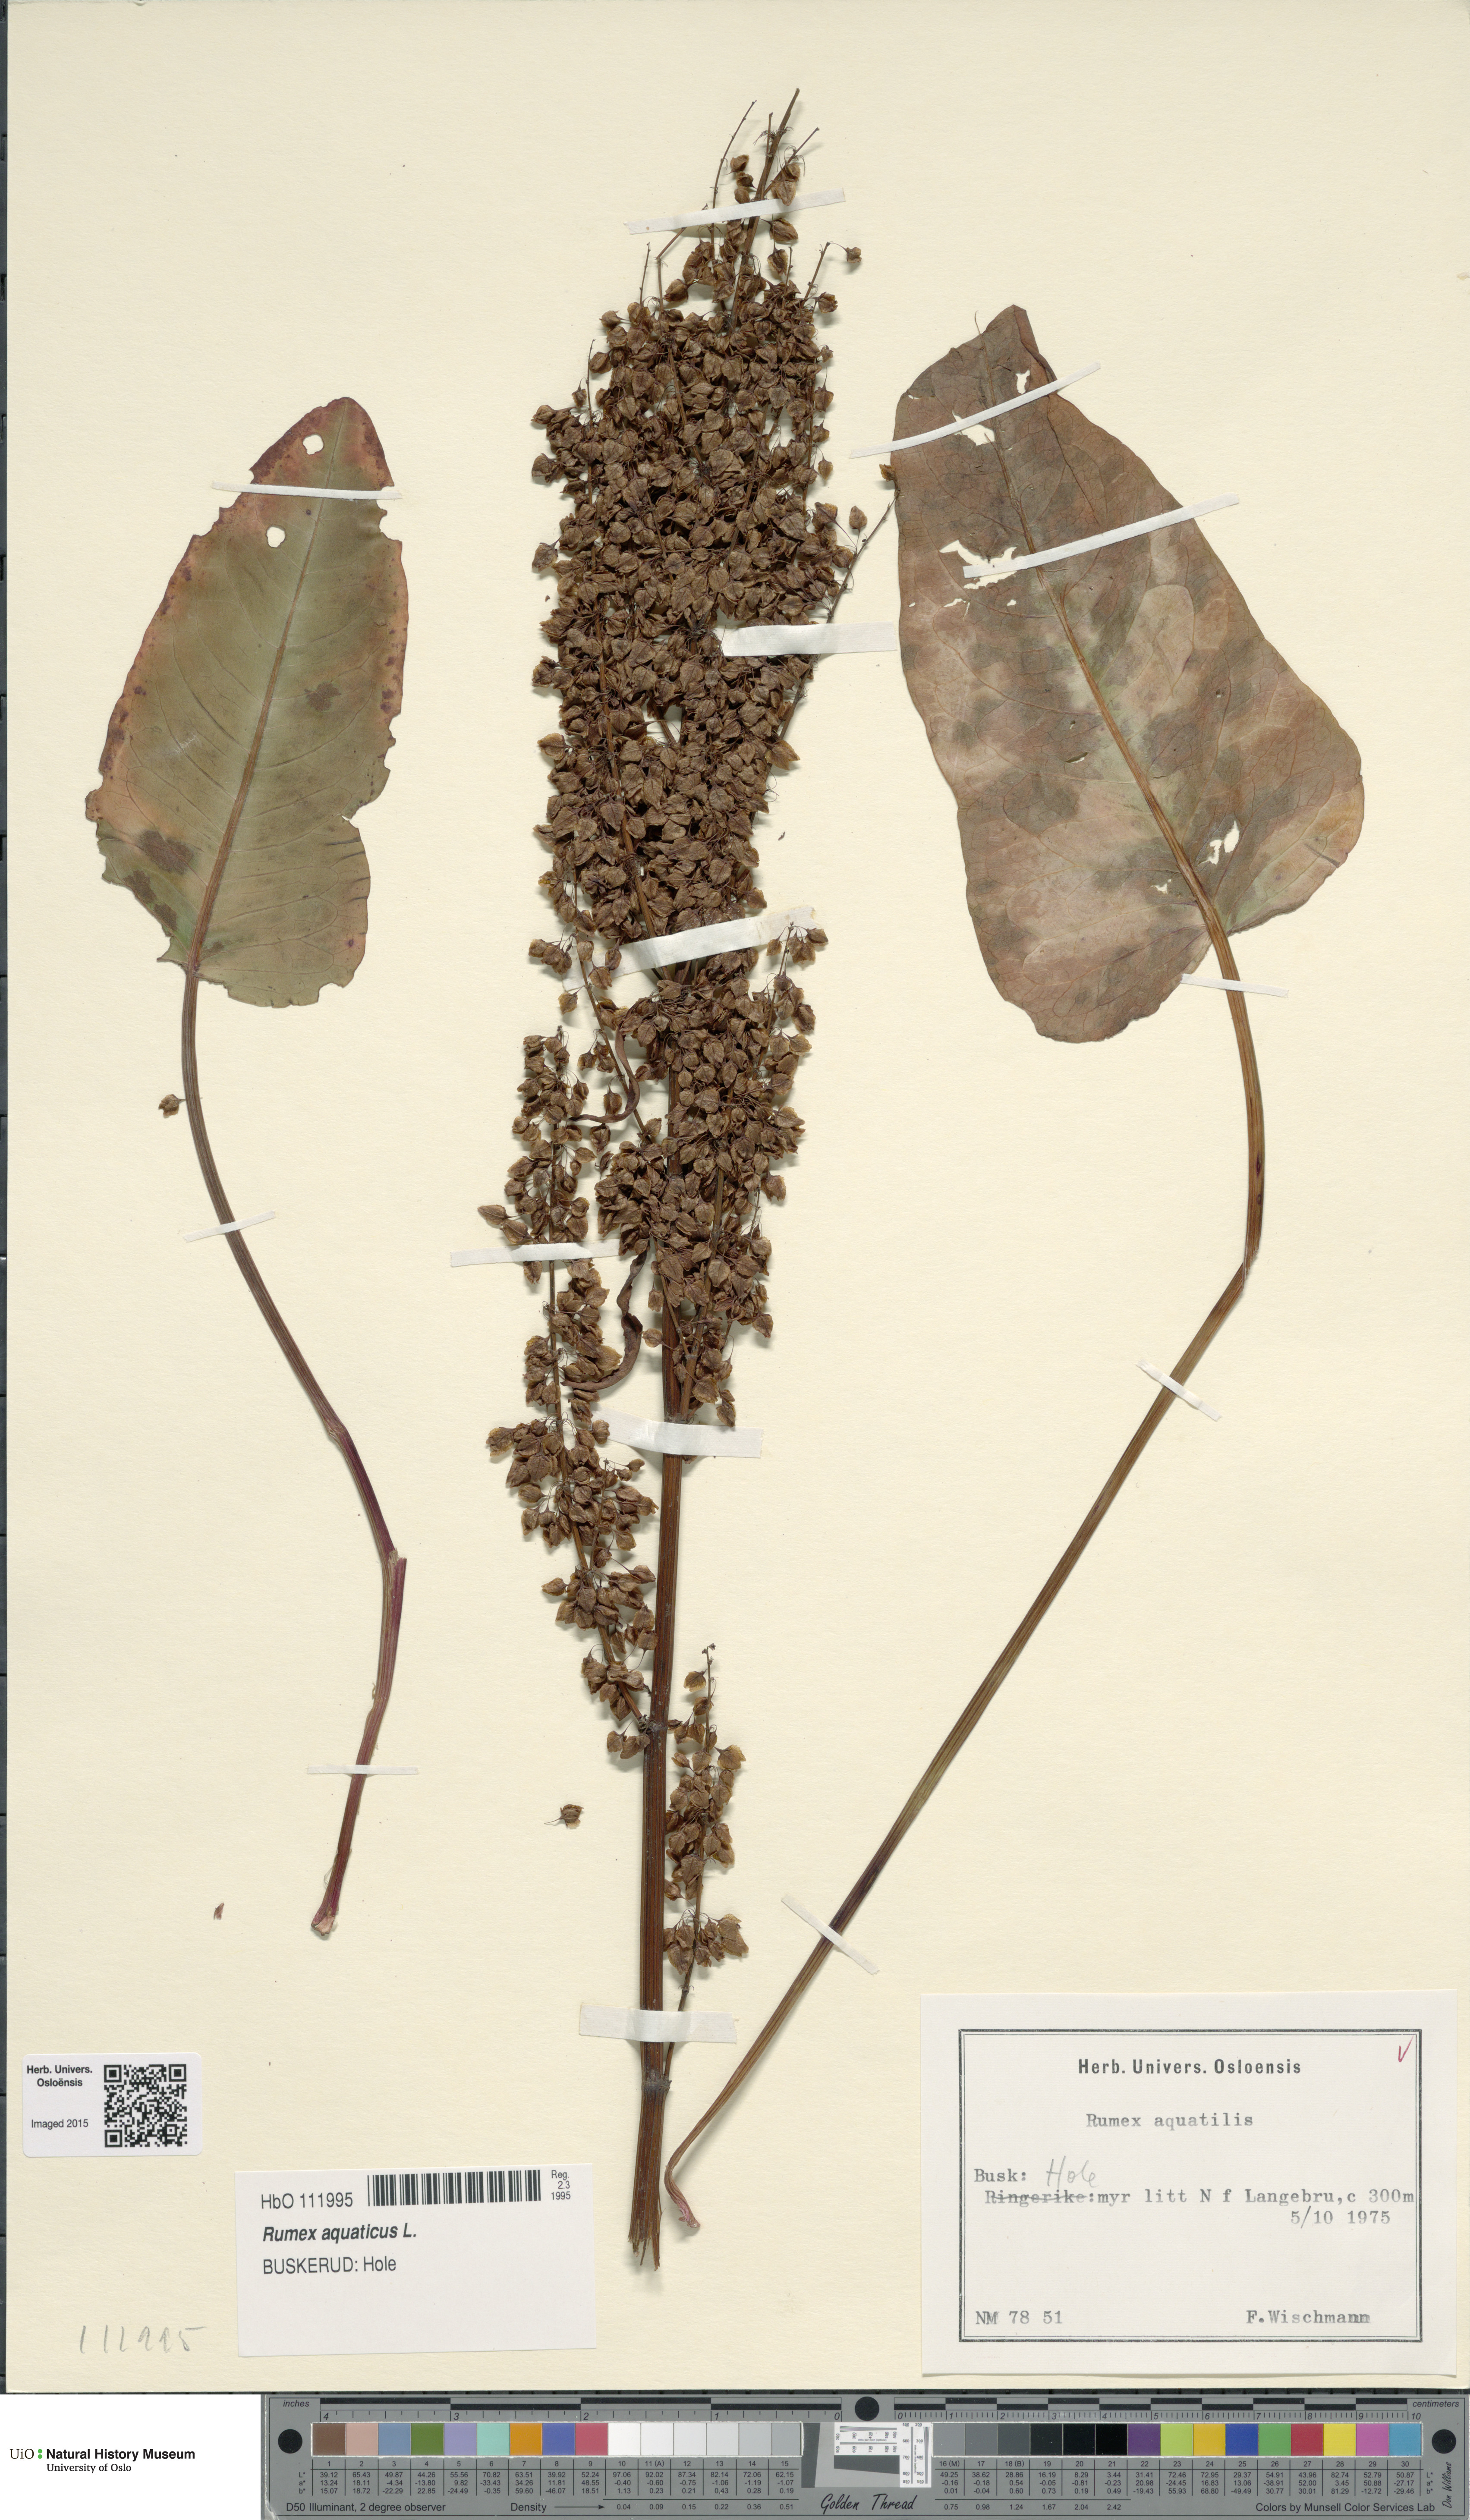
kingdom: Plantae
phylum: Tracheophyta
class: Magnoliopsida
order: Caryophyllales
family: Polygonaceae
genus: Rumex
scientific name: Rumex aquaticus
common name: Scottish dock
